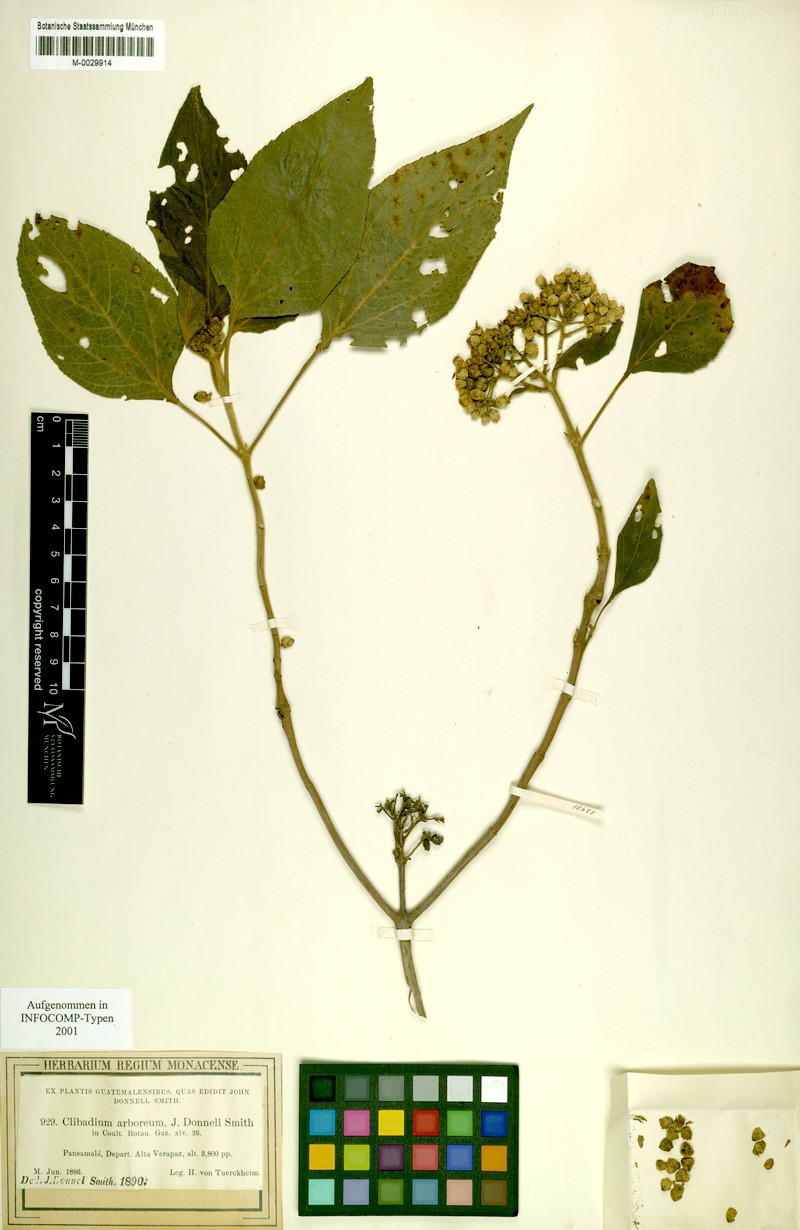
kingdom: Plantae
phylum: Tracheophyta
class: Magnoliopsida
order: Asterales
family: Asteraceae
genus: Clibadium
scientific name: Clibadium arboreum
